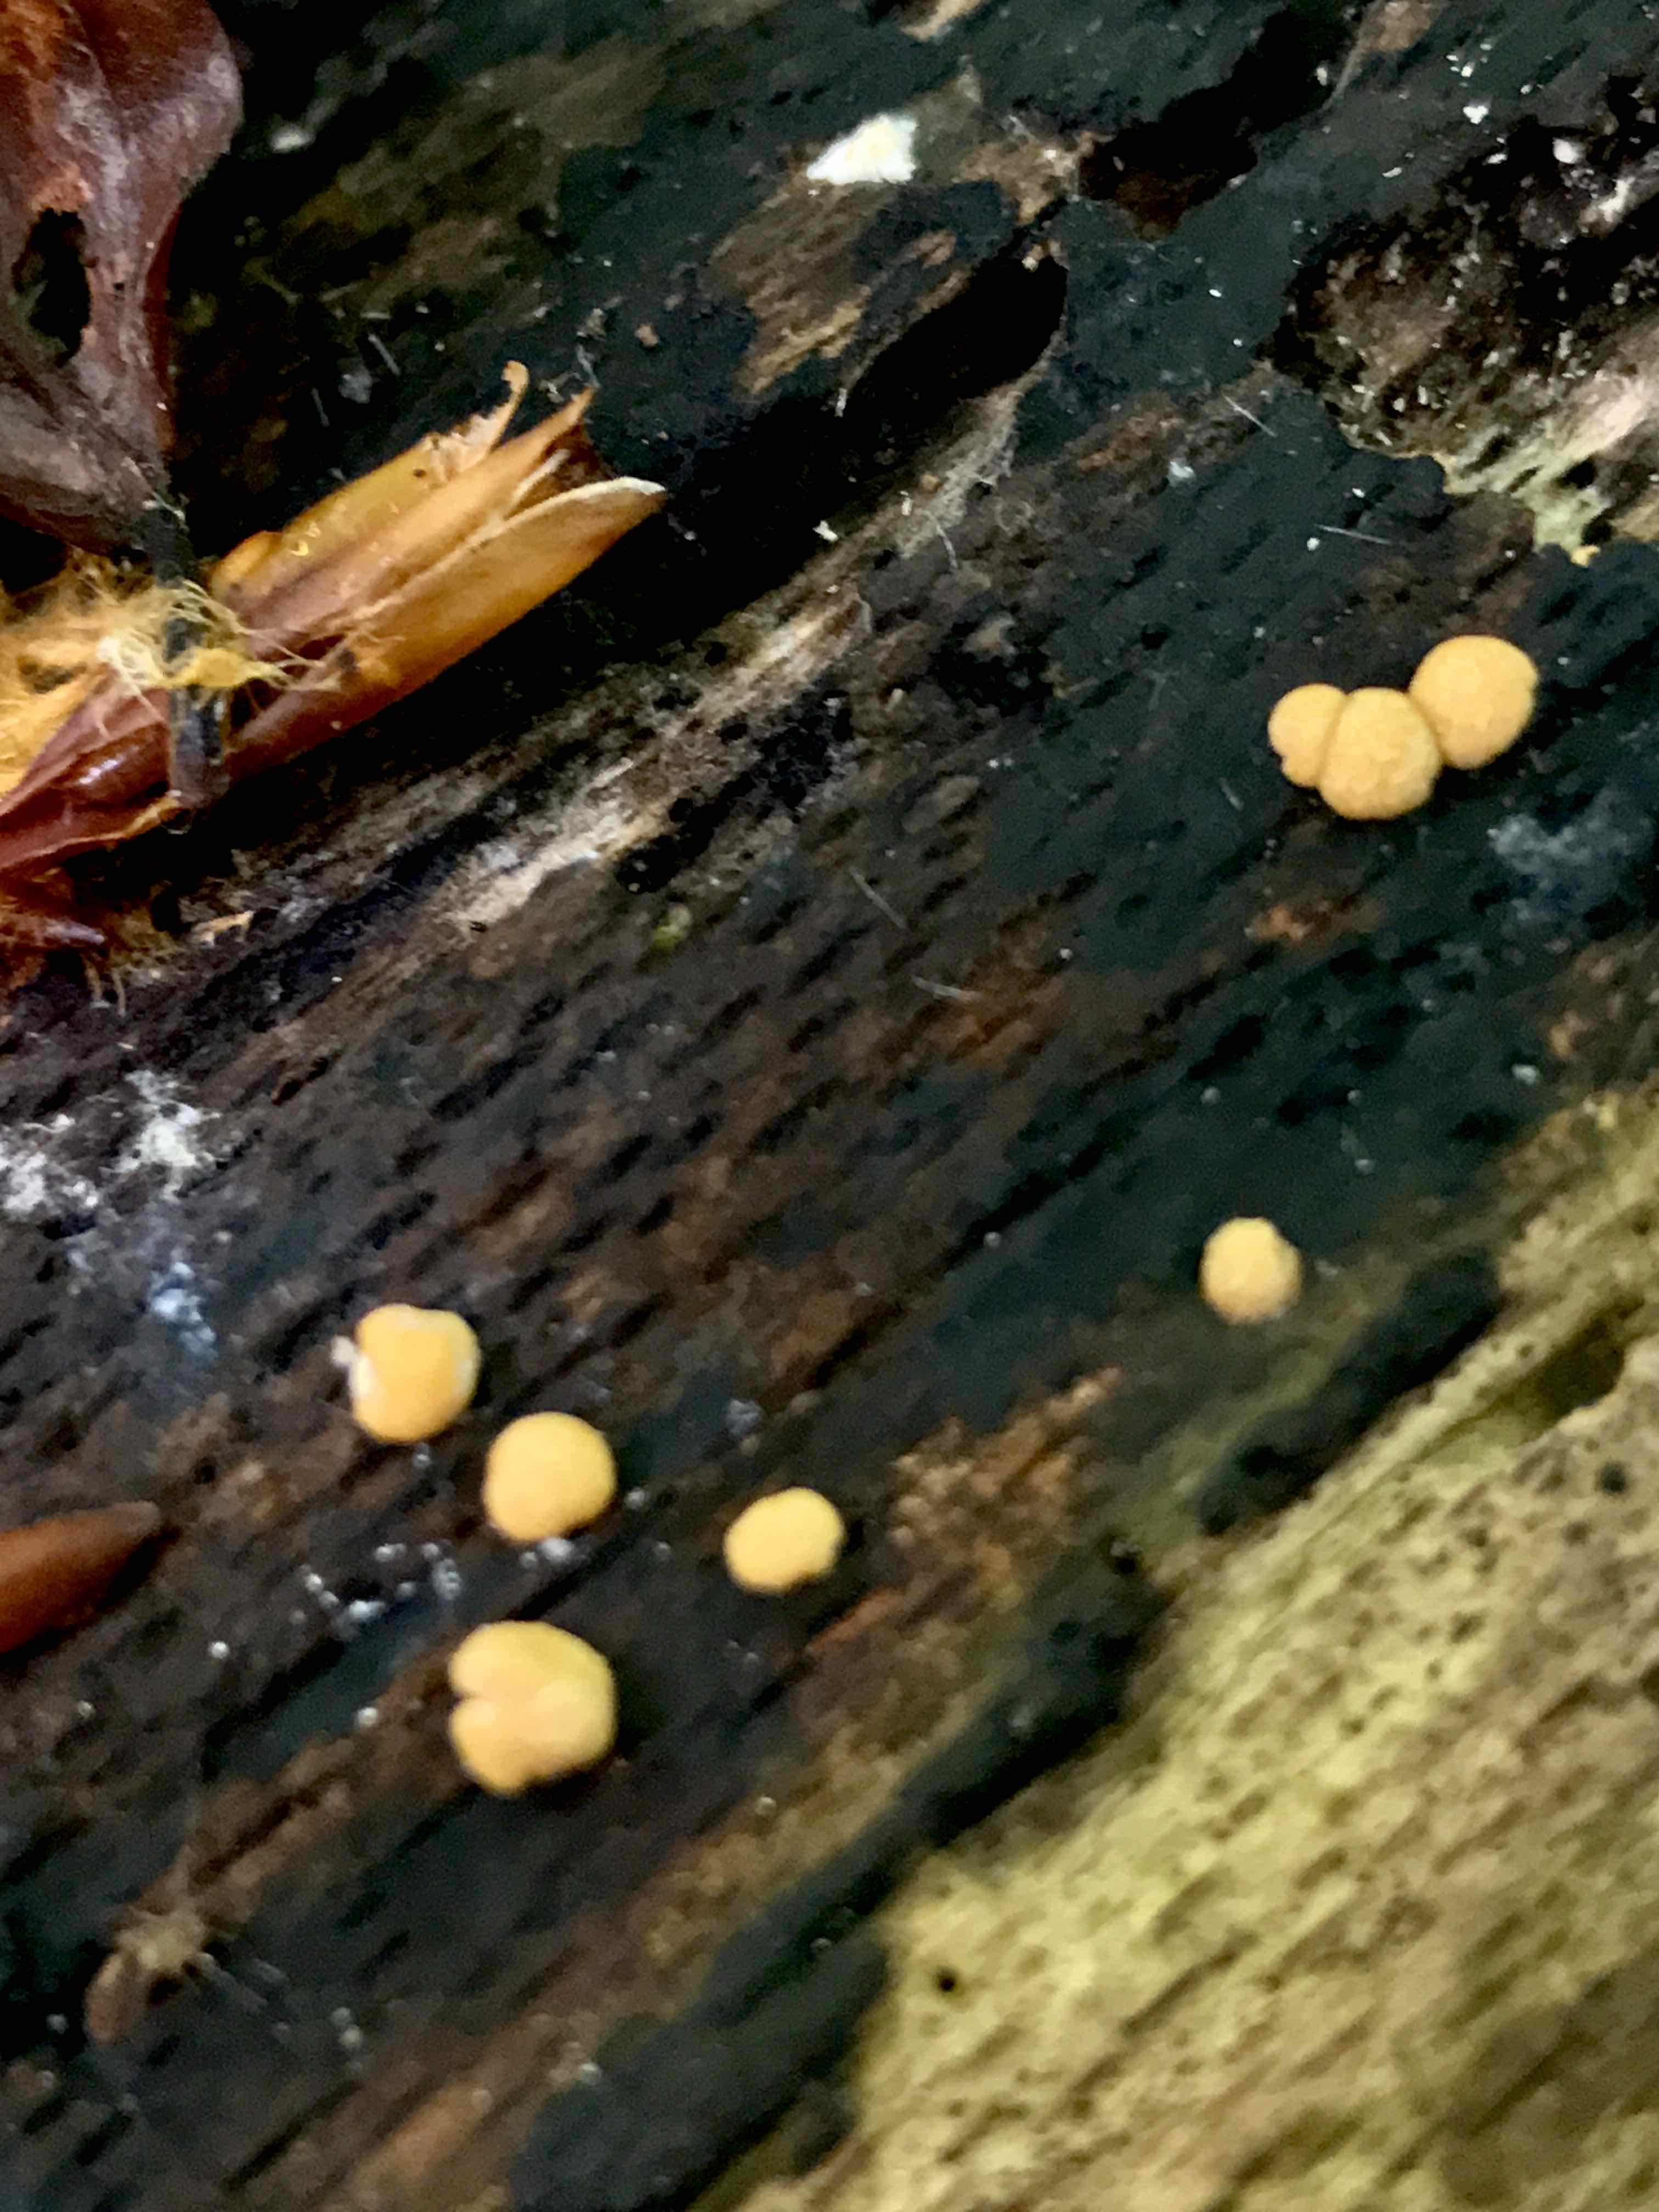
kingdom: Fungi
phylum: Basidiomycota
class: Agaricomycetes
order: Cantharellales
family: Botryobasidiaceae
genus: Botryobasidium
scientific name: Botryobasidium aureum
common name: gylden spindhinde
